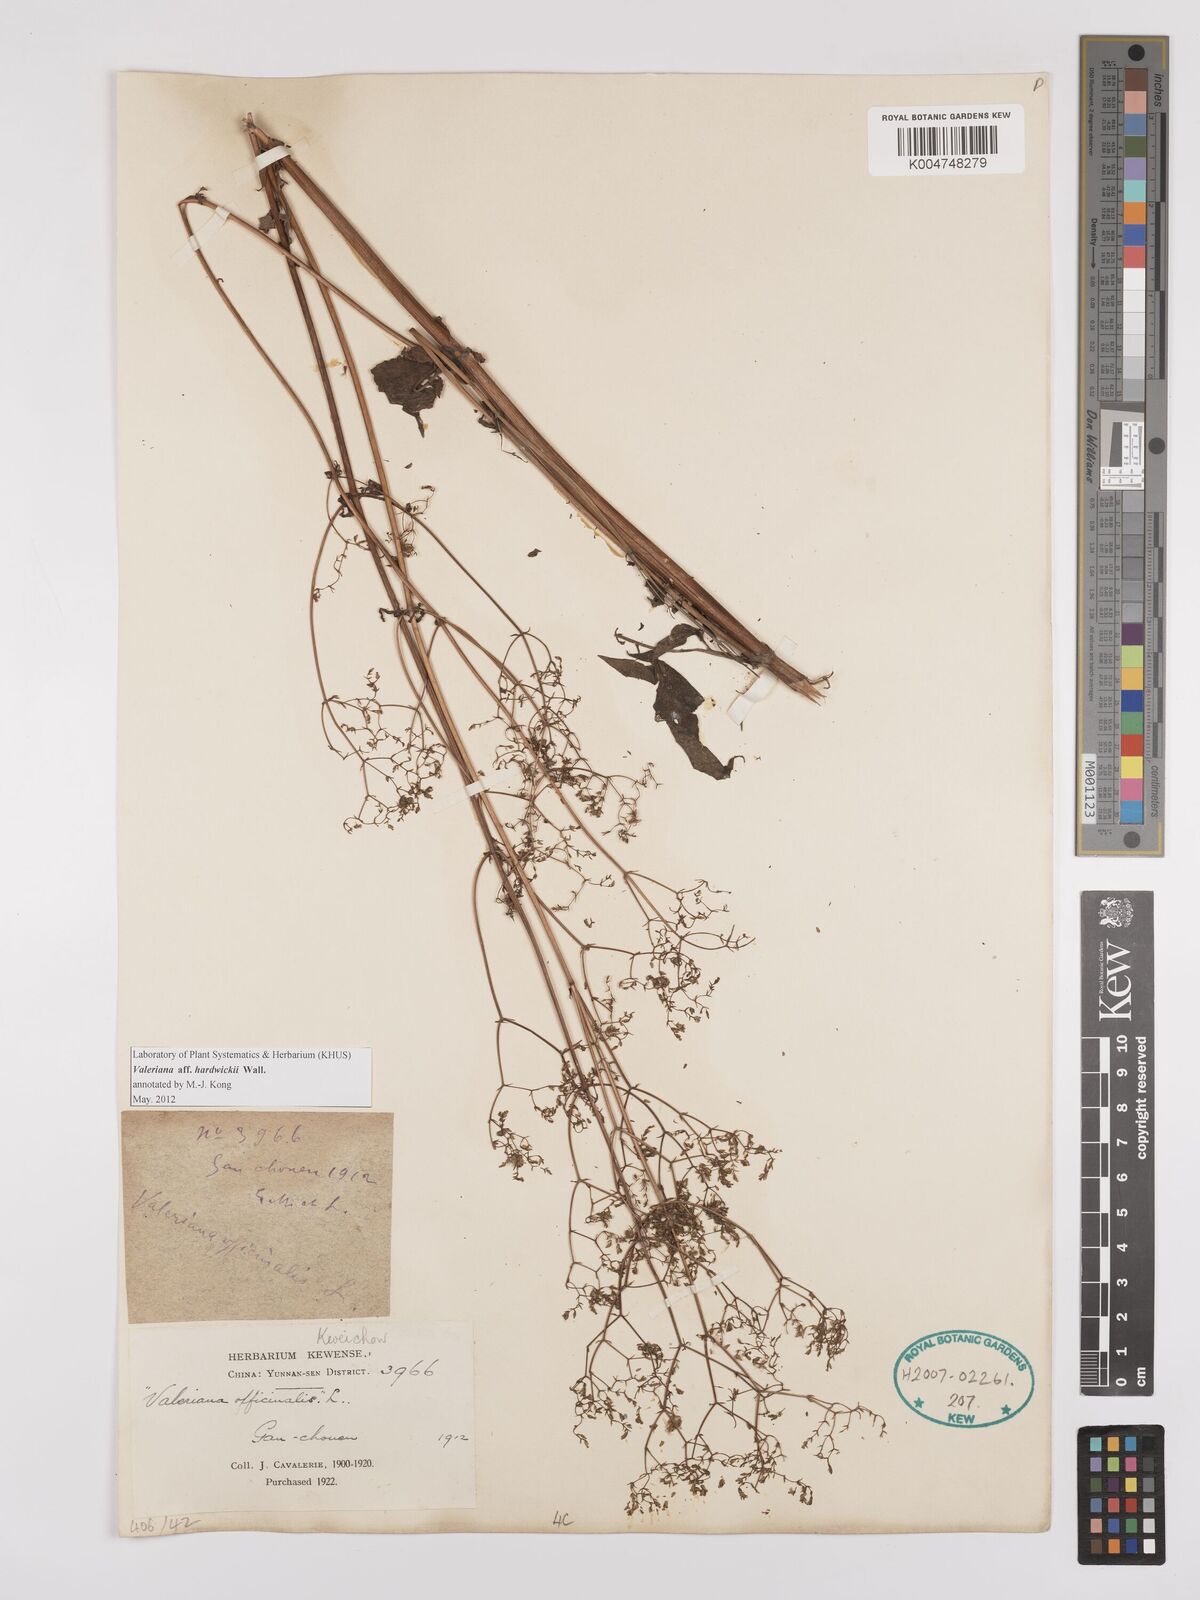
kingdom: Plantae
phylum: Tracheophyta
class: Magnoliopsida
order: Dipsacales
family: Caprifoliaceae
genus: Valeriana
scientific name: Valeriana hardwickei
